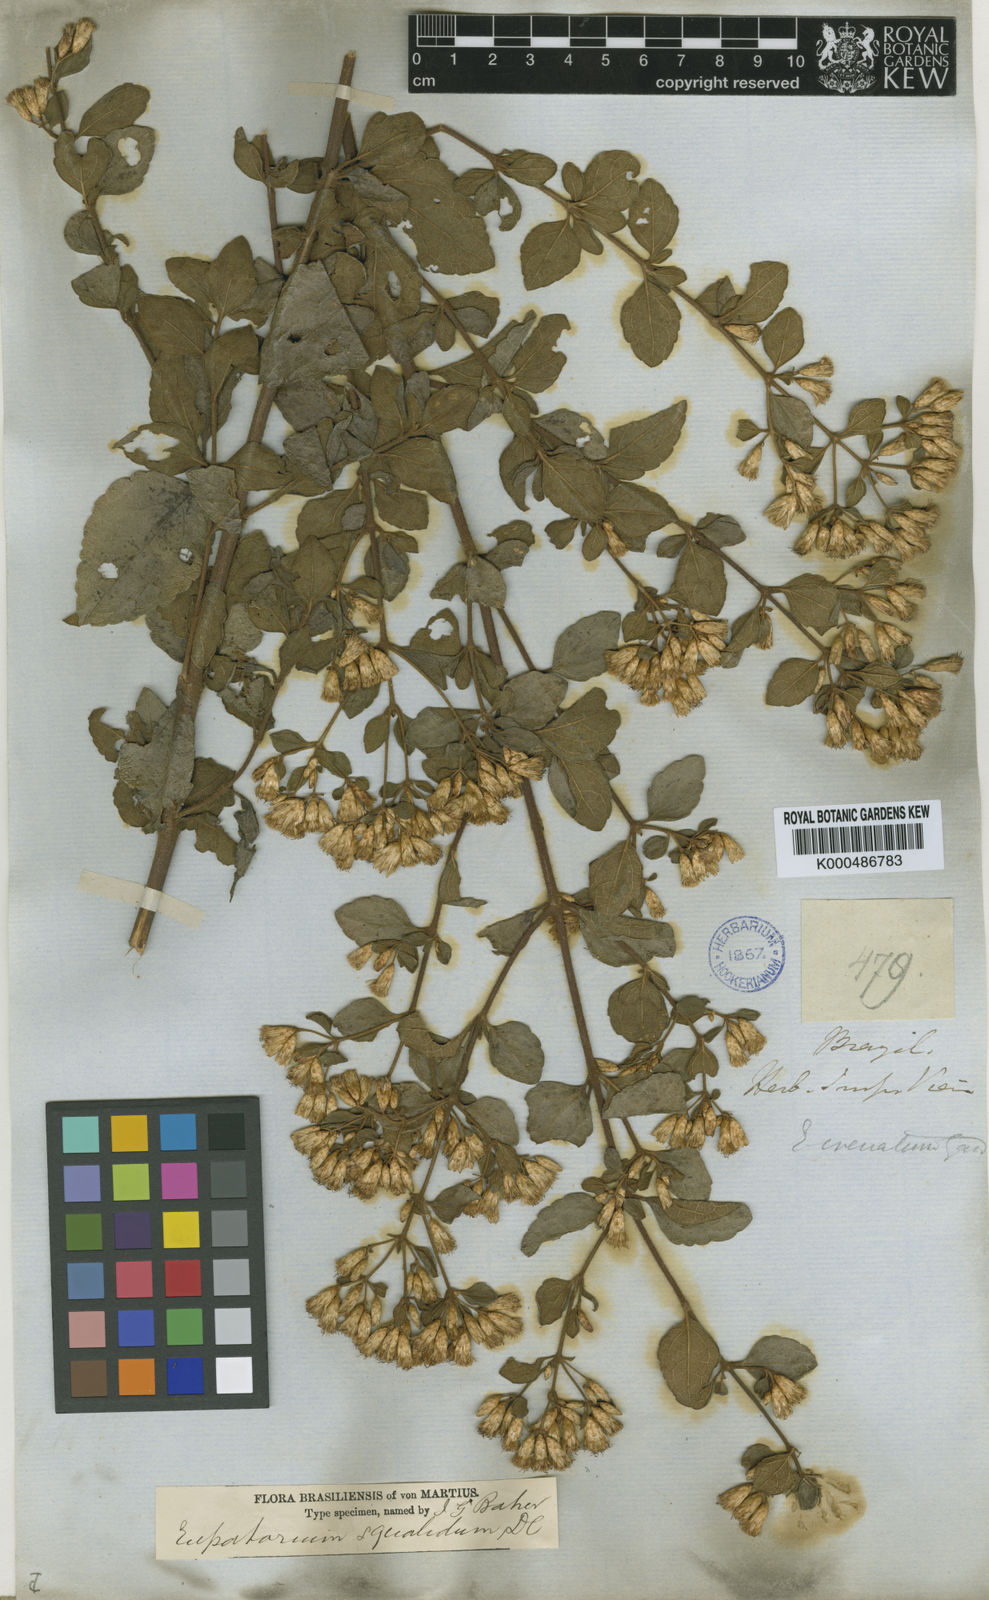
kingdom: Plantae
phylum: Tracheophyta
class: Magnoliopsida
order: Asterales
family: Asteraceae
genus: Chromolaena
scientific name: Chromolaena squalida
